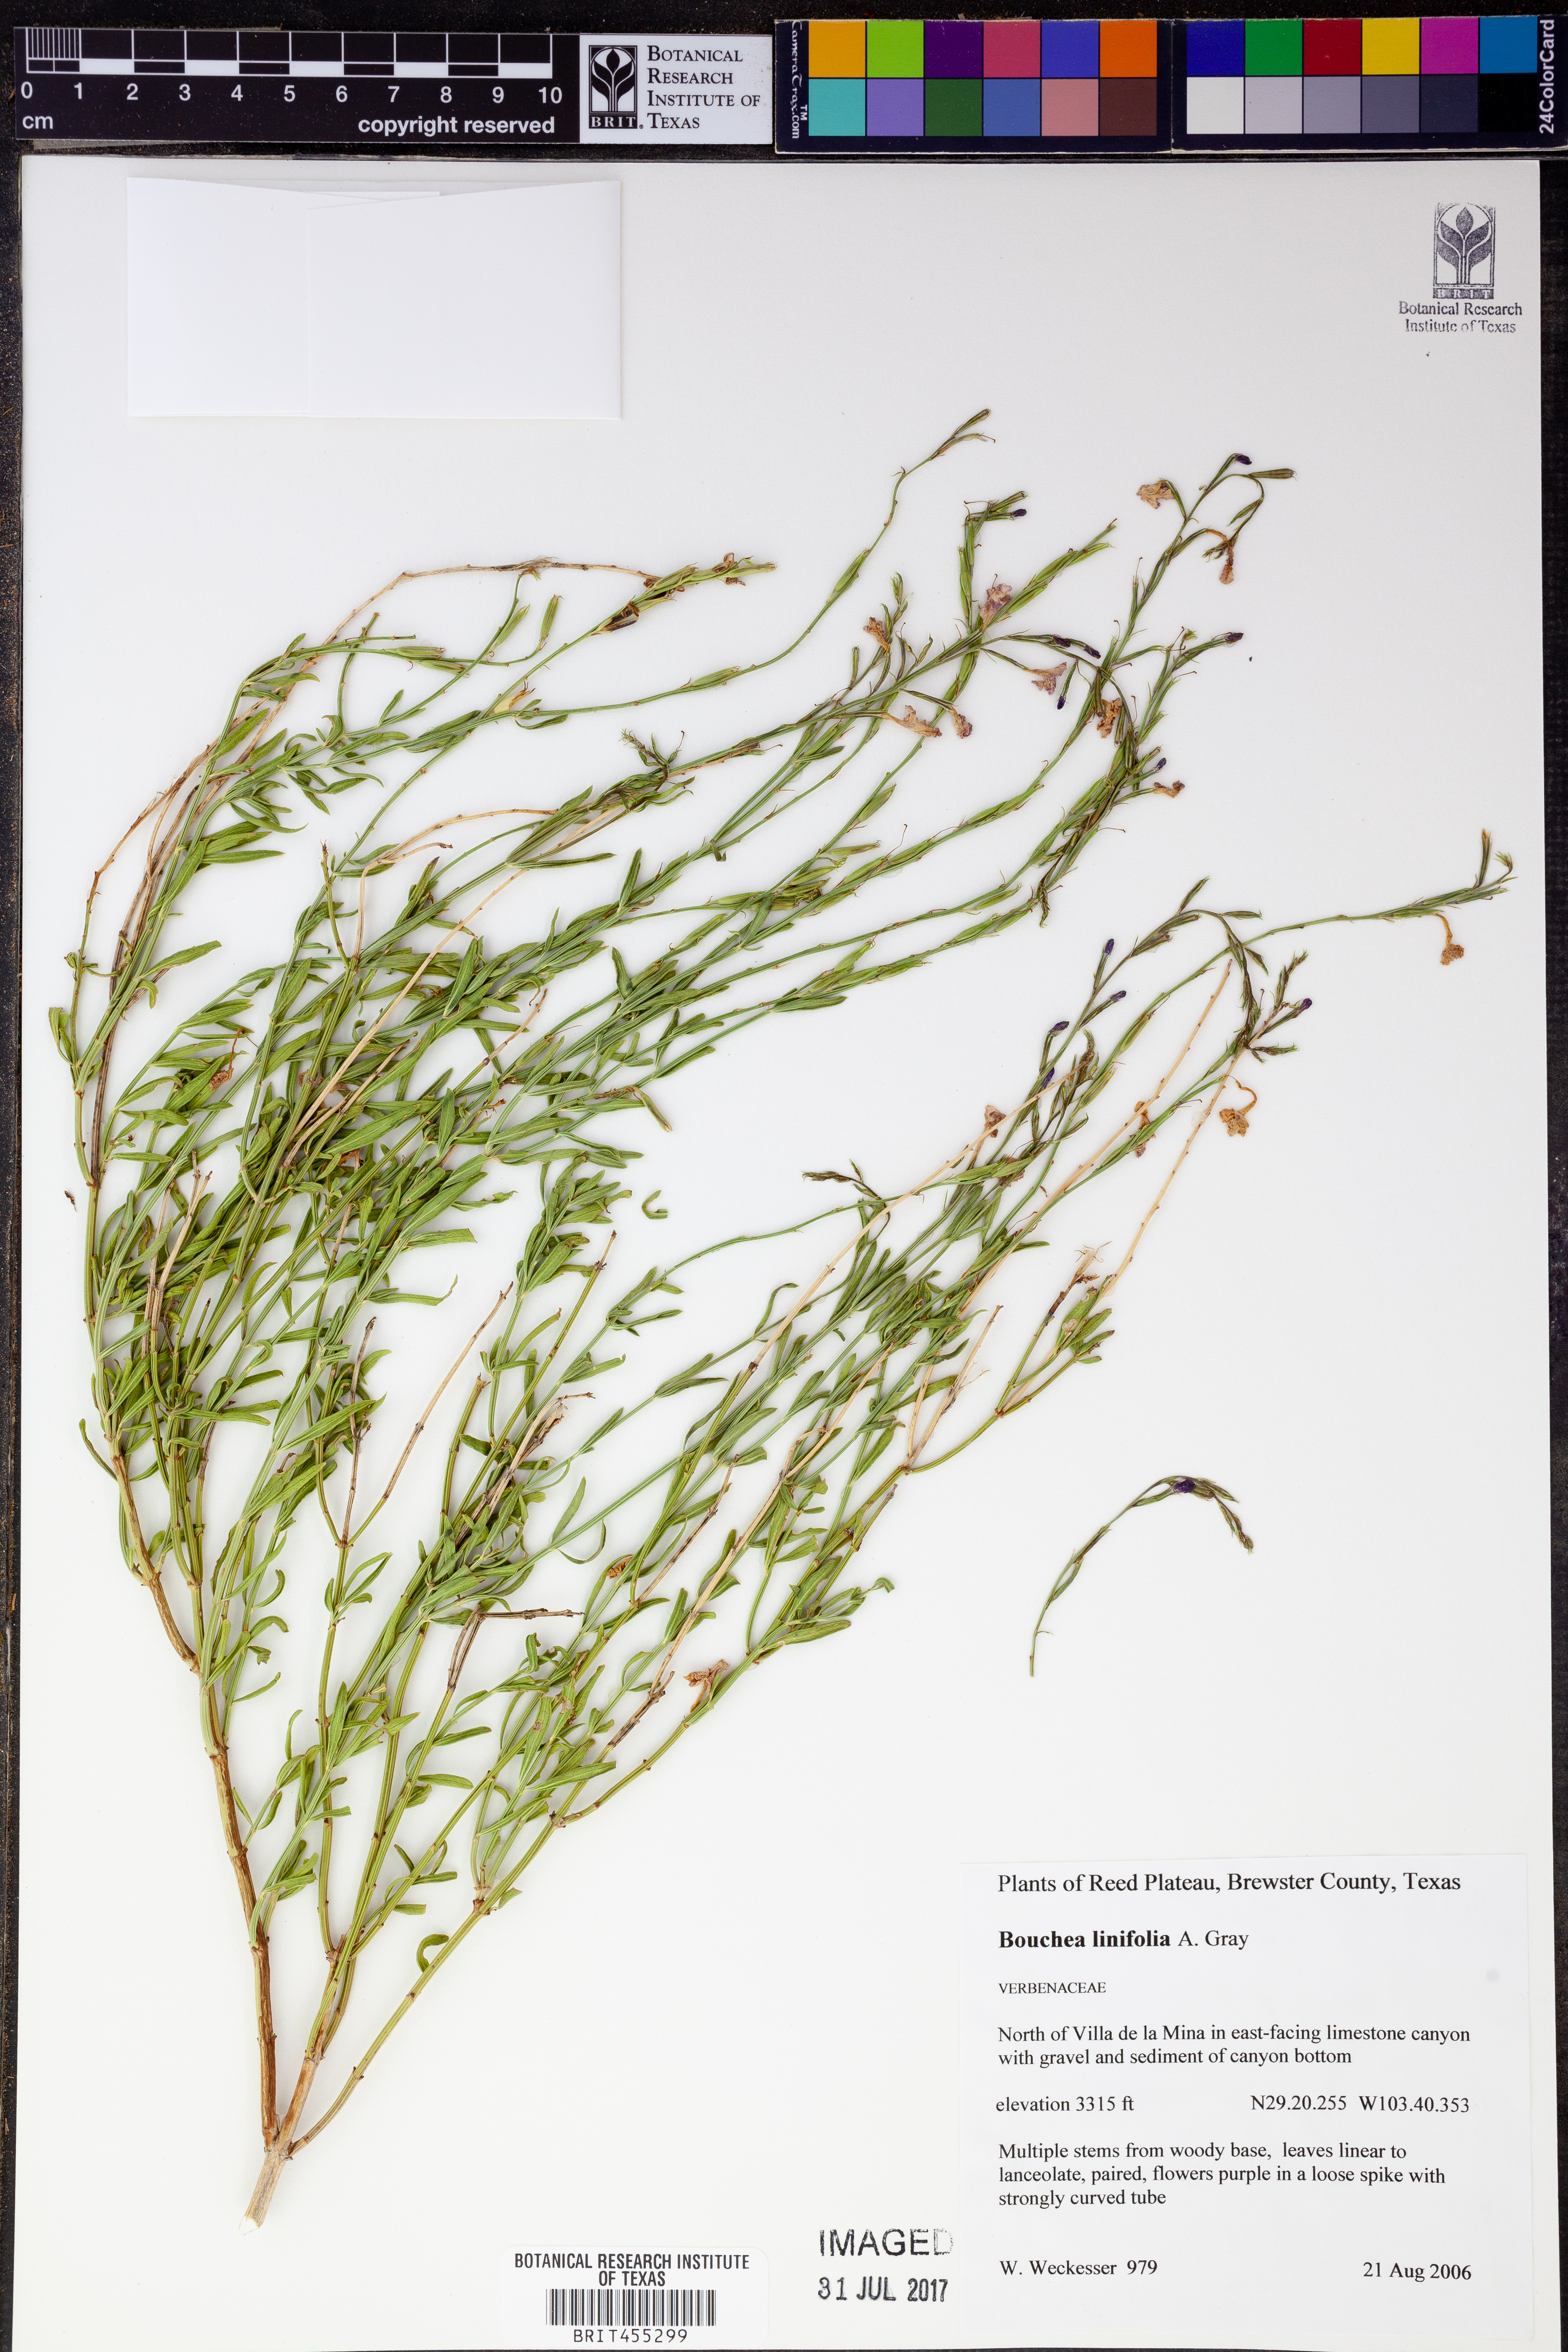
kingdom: Plantae
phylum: Tracheophyta
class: Magnoliopsida
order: Lamiales
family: Verbenaceae
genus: Bouchea
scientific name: Bouchea linifolia
